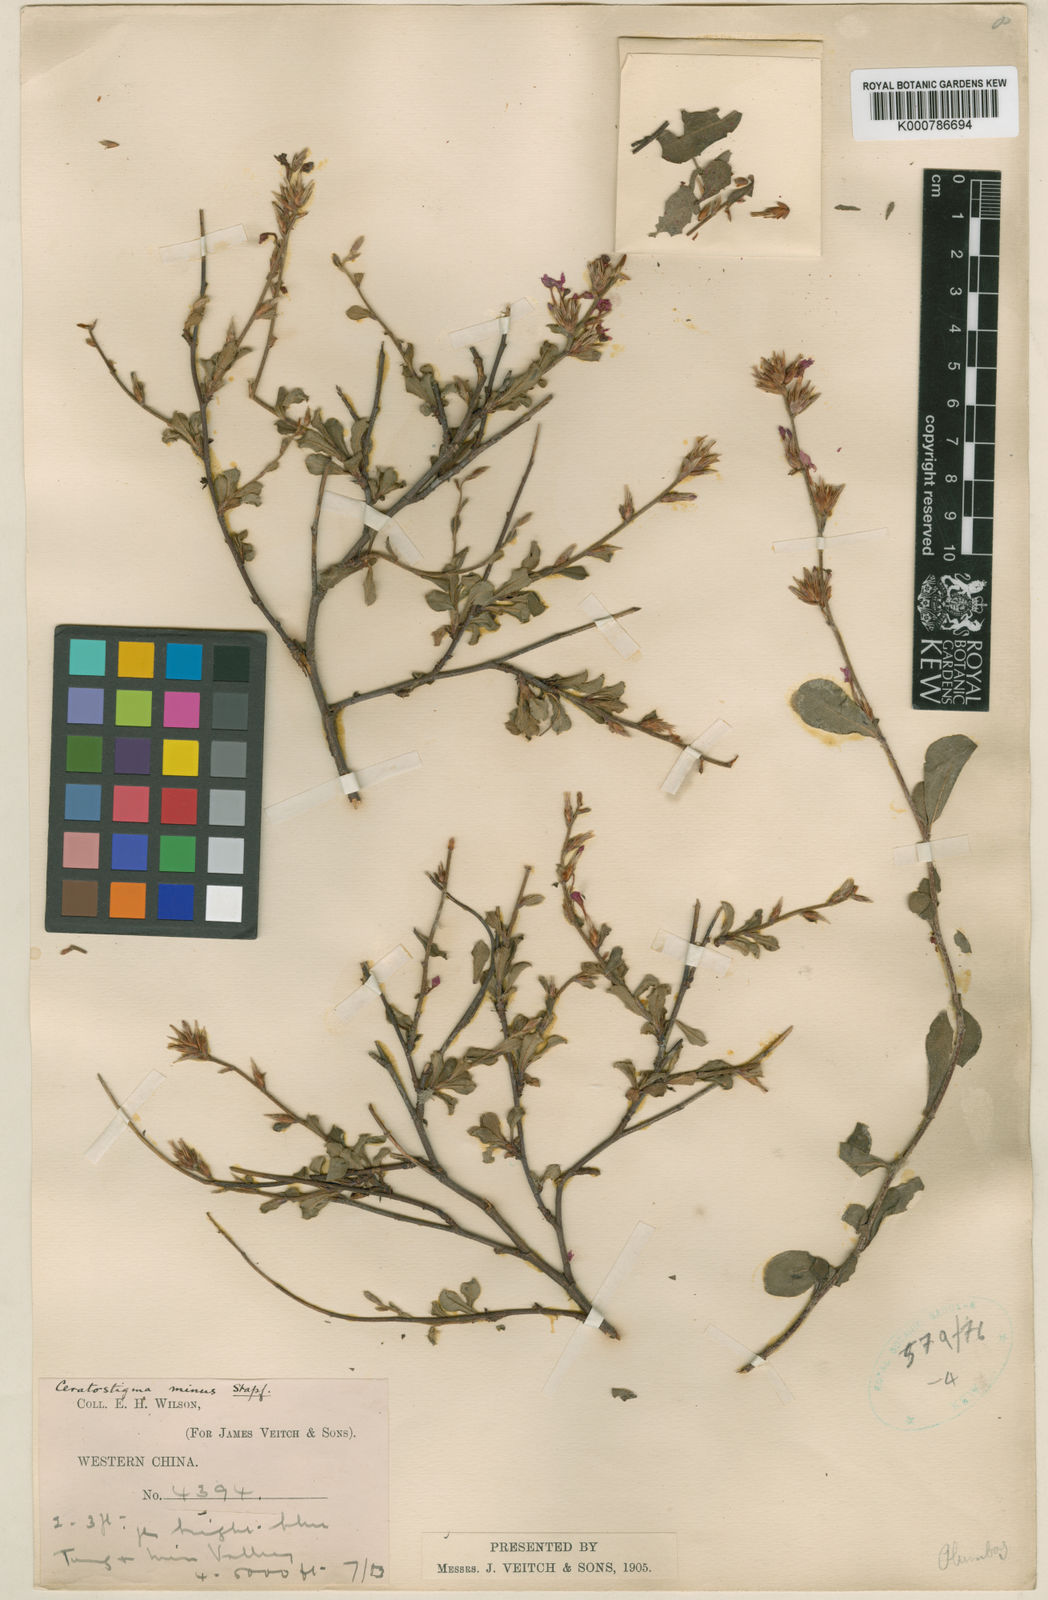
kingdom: Plantae
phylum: Tracheophyta
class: Magnoliopsida
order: Caryophyllales
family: Plumbaginaceae
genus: Ceratostigma
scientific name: Ceratostigma minus
